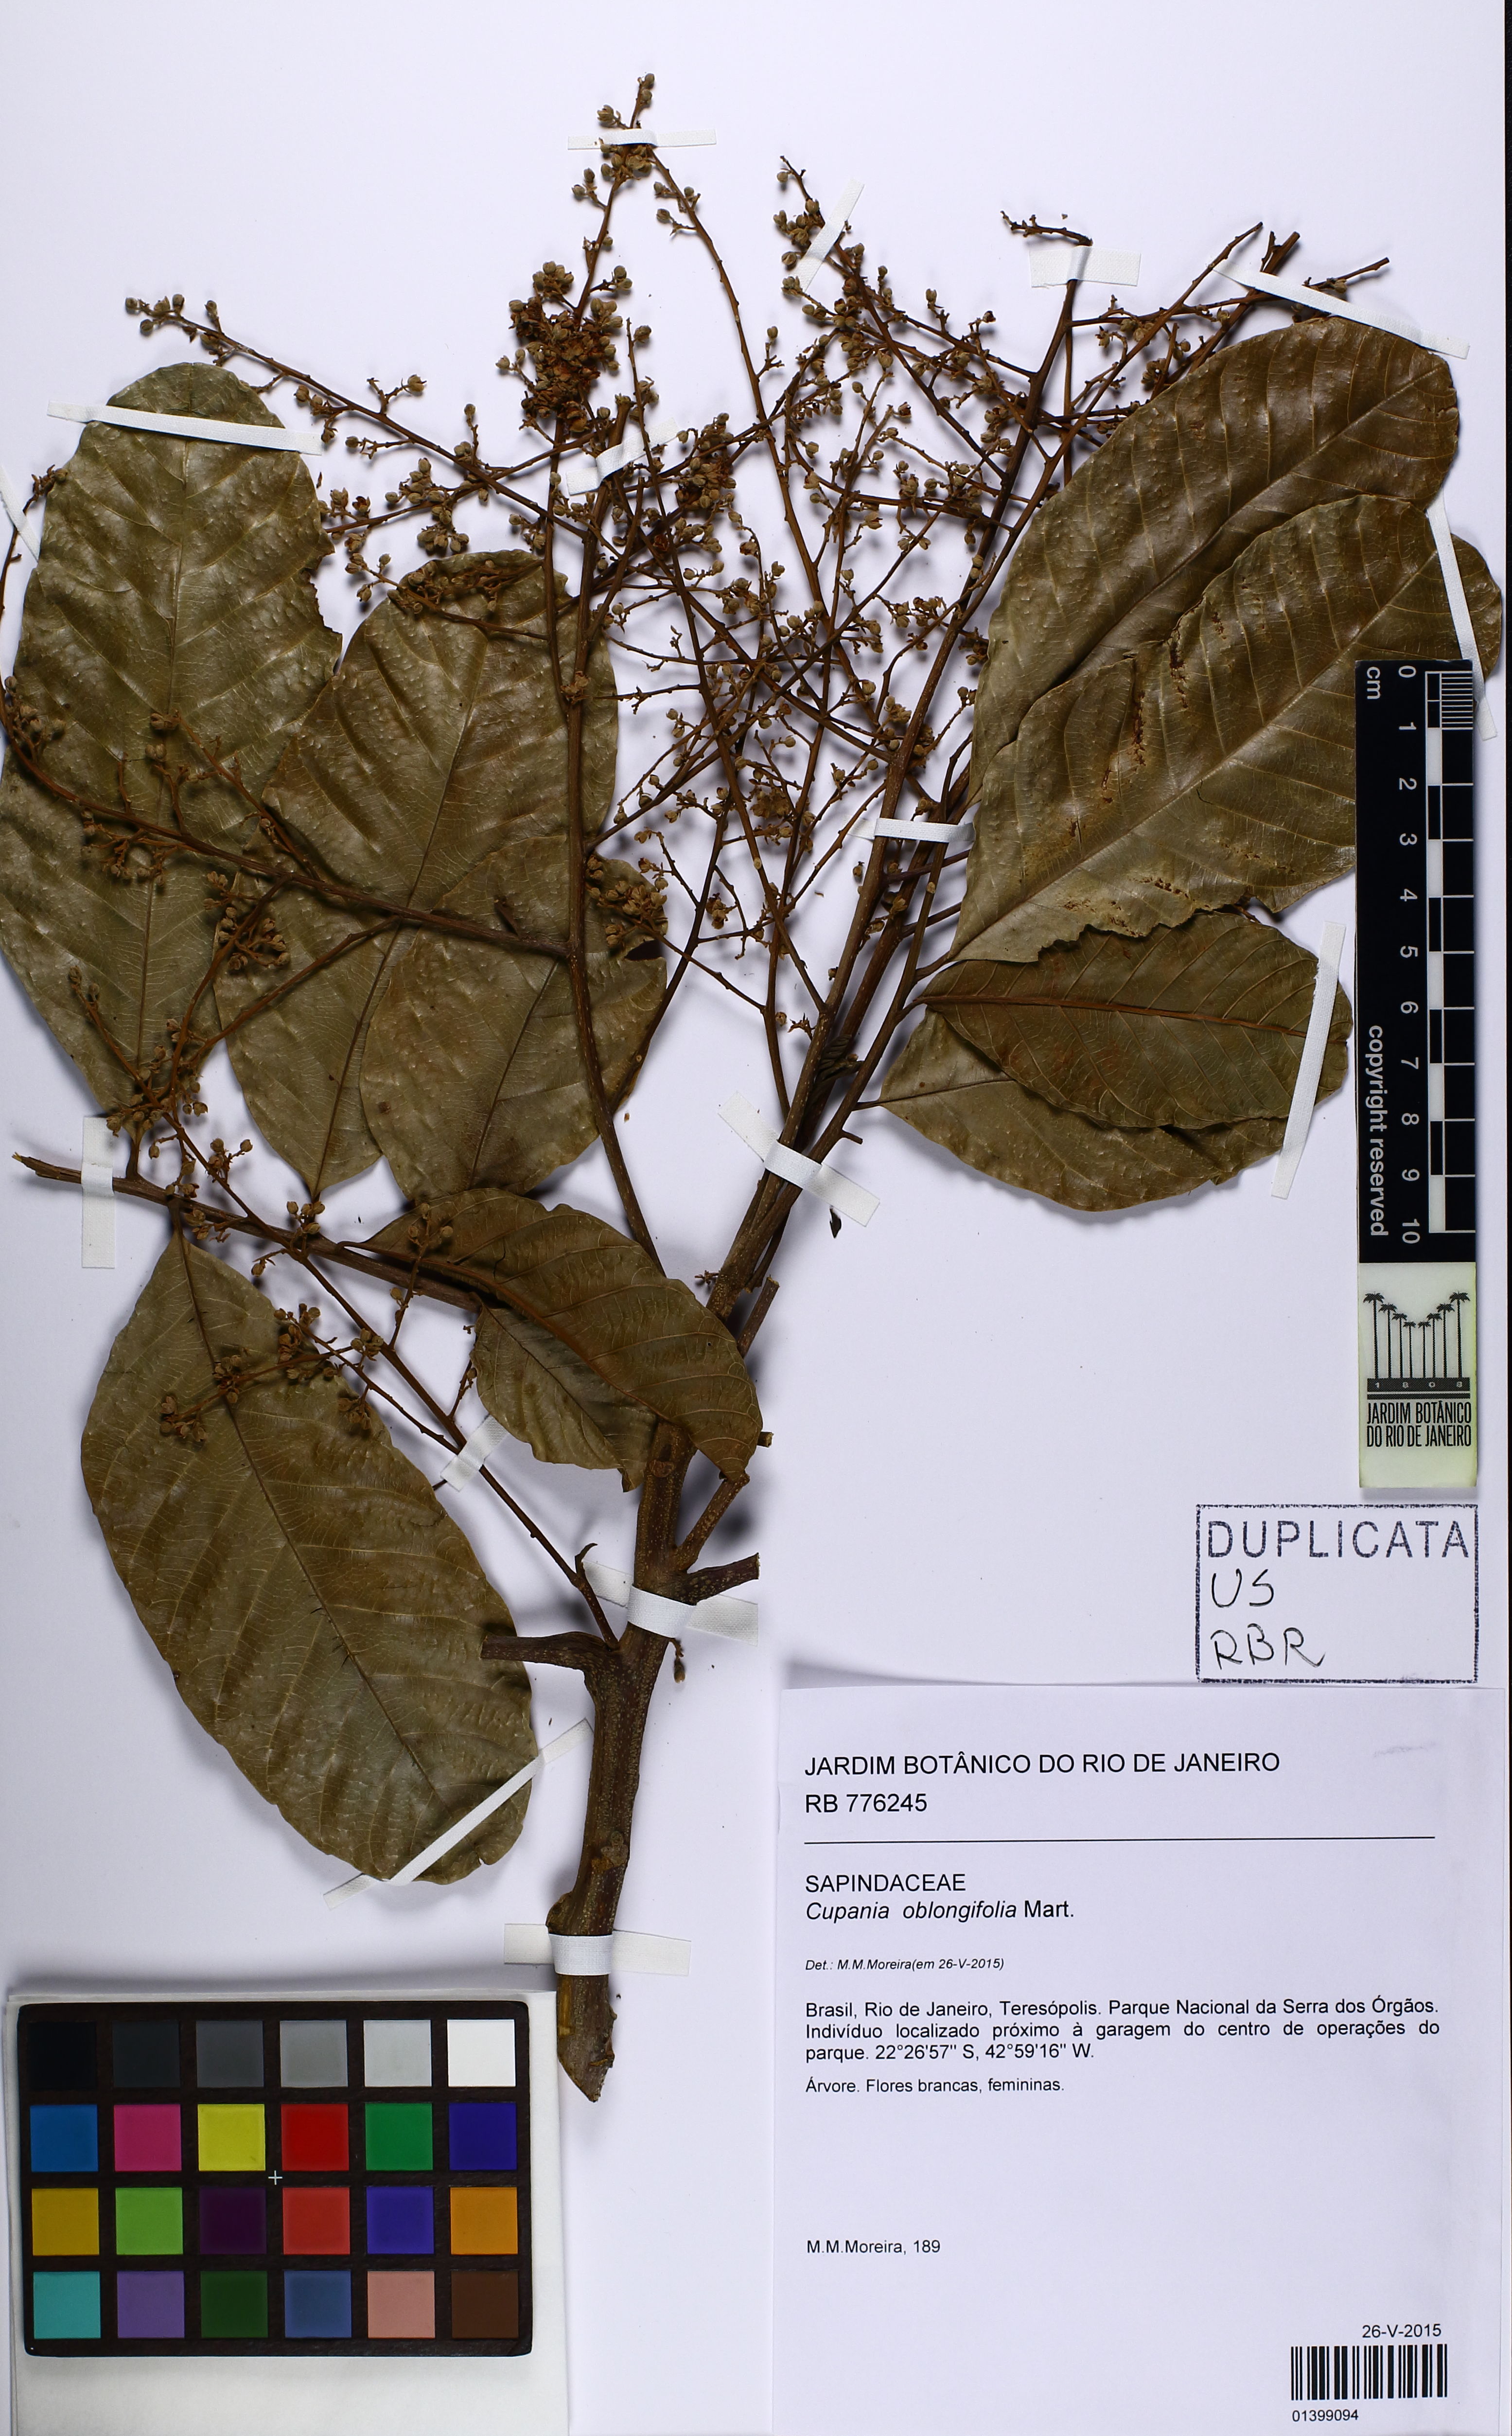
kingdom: Plantae
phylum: Tracheophyta
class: Magnoliopsida
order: Sapindales
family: Sapindaceae
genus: Cupania
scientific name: Cupania oblongifolia
